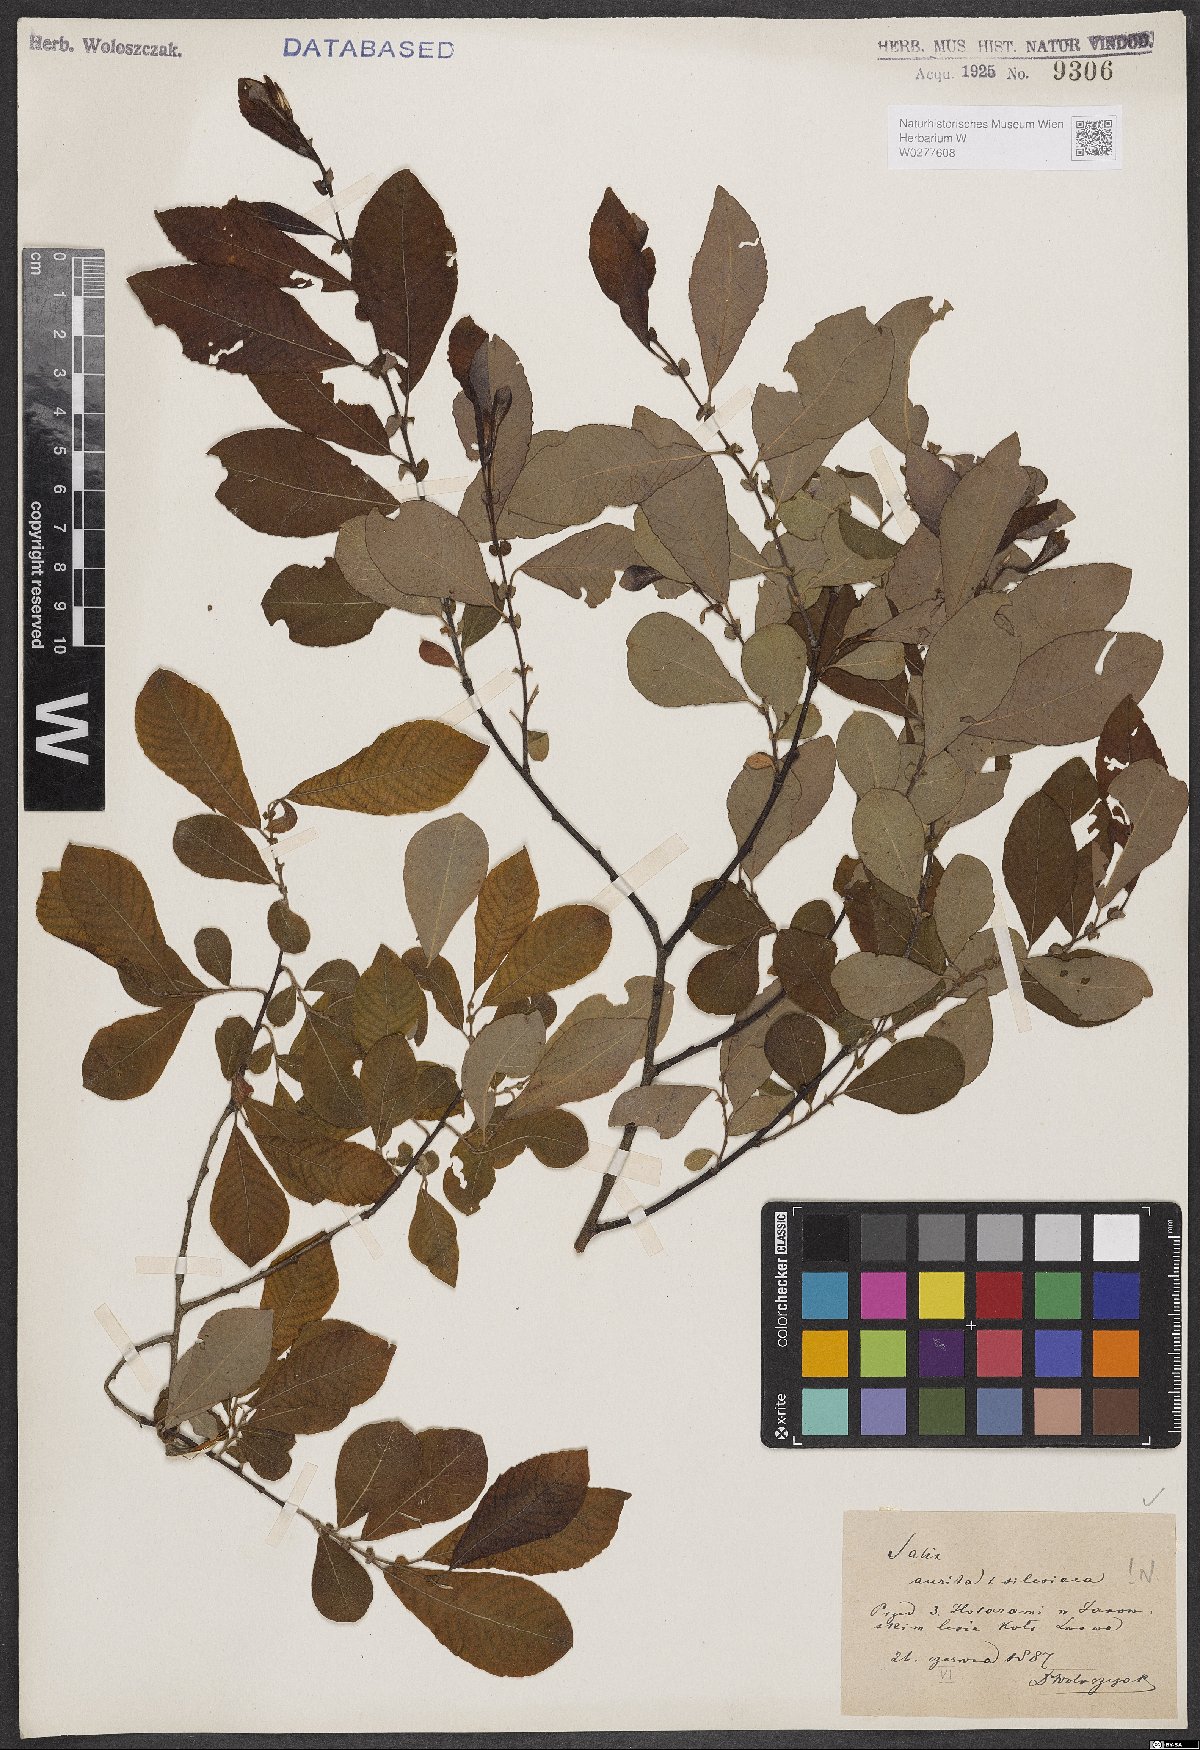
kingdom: Plantae
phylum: Tracheophyta
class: Magnoliopsida
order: Malpighiales
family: Salicaceae
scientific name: Salicaceae
